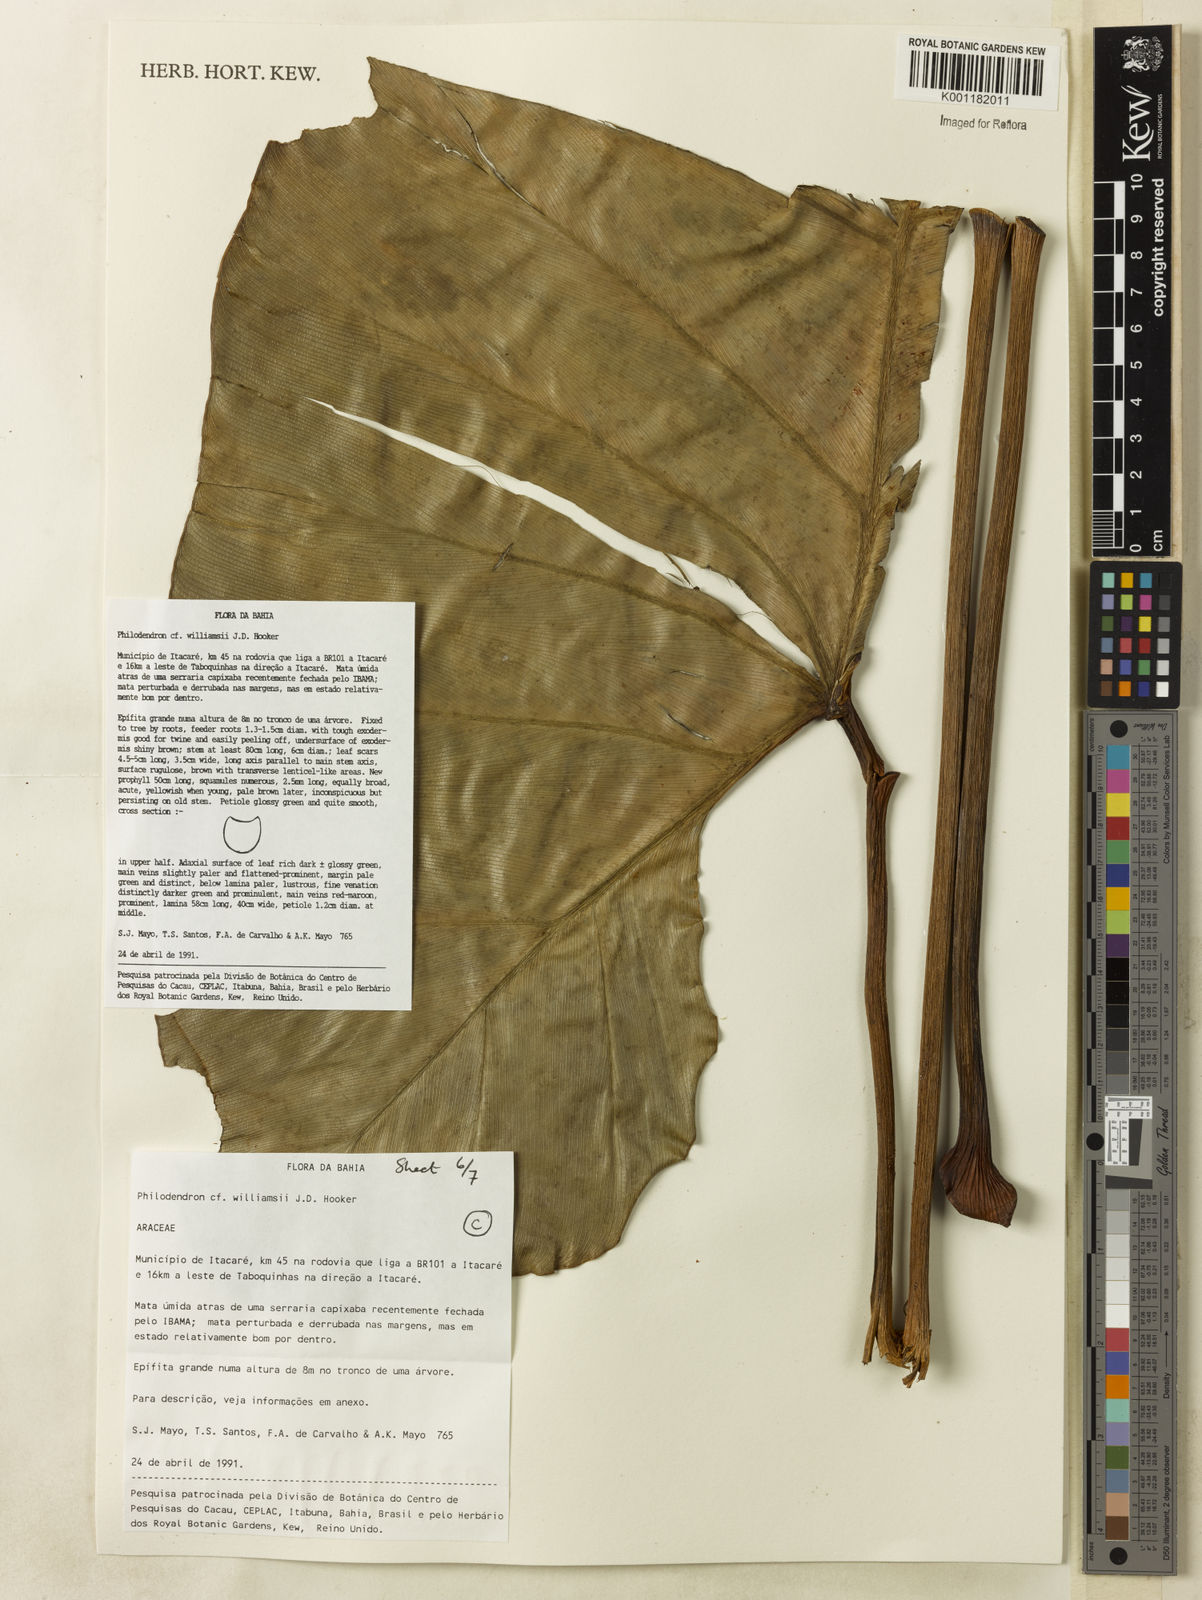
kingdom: Plantae
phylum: Tracheophyta
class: Liliopsida
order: Alismatales
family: Araceae
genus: Thaumatophyllum
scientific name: Thaumatophyllum williamsii
